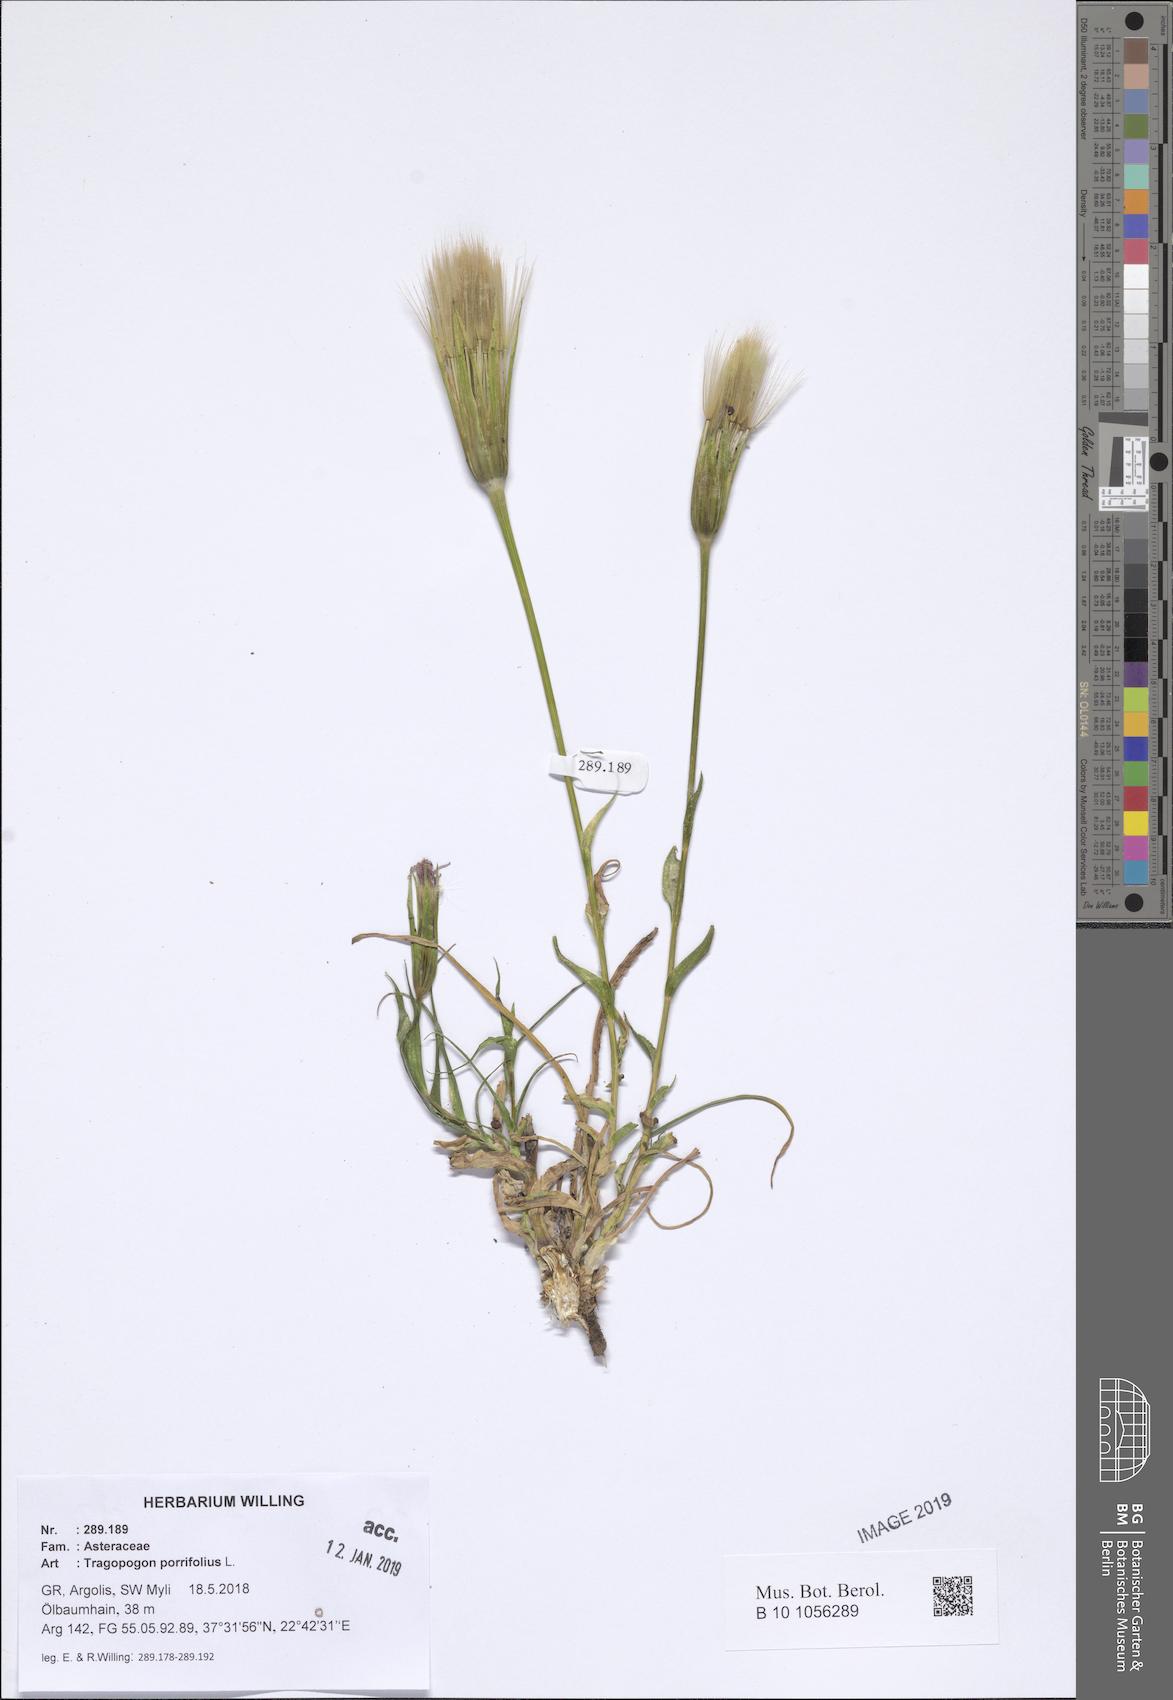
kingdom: Plantae
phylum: Tracheophyta
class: Magnoliopsida
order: Asterales
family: Asteraceae
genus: Tragopogon
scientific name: Tragopogon porrifolius
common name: Salsify
